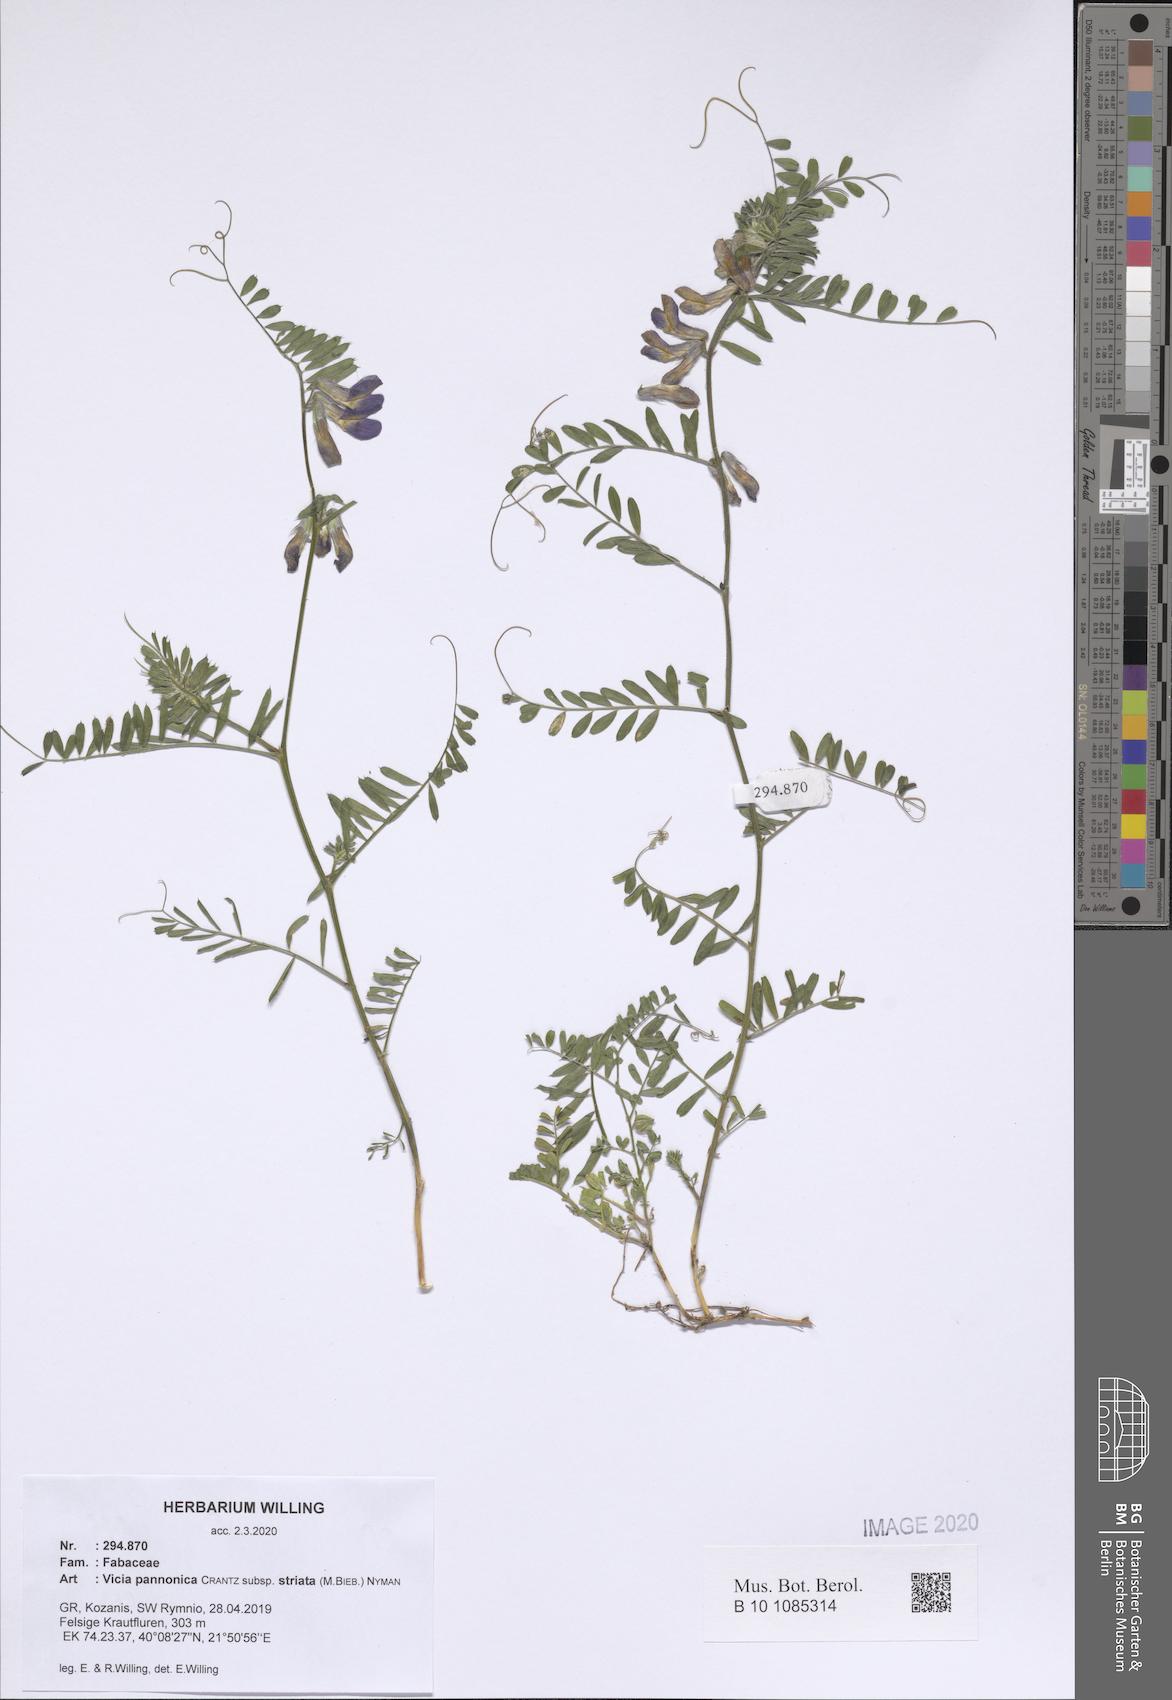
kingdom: Plantae
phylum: Tracheophyta
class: Magnoliopsida
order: Fabales
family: Fabaceae
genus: Vicia
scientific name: Vicia pannonica
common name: Hungarian vetch
